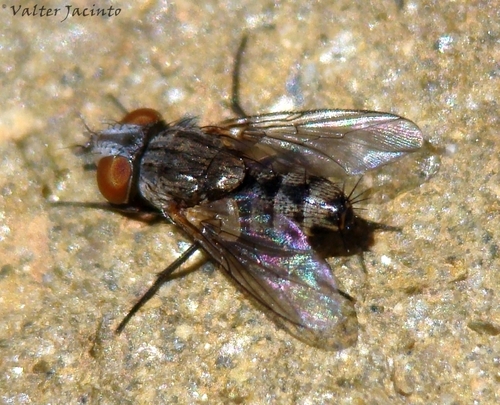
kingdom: Animalia
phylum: Arthropoda
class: Insecta
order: Diptera
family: Sarcophagidae
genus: Taxigramma
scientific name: Taxigramma
